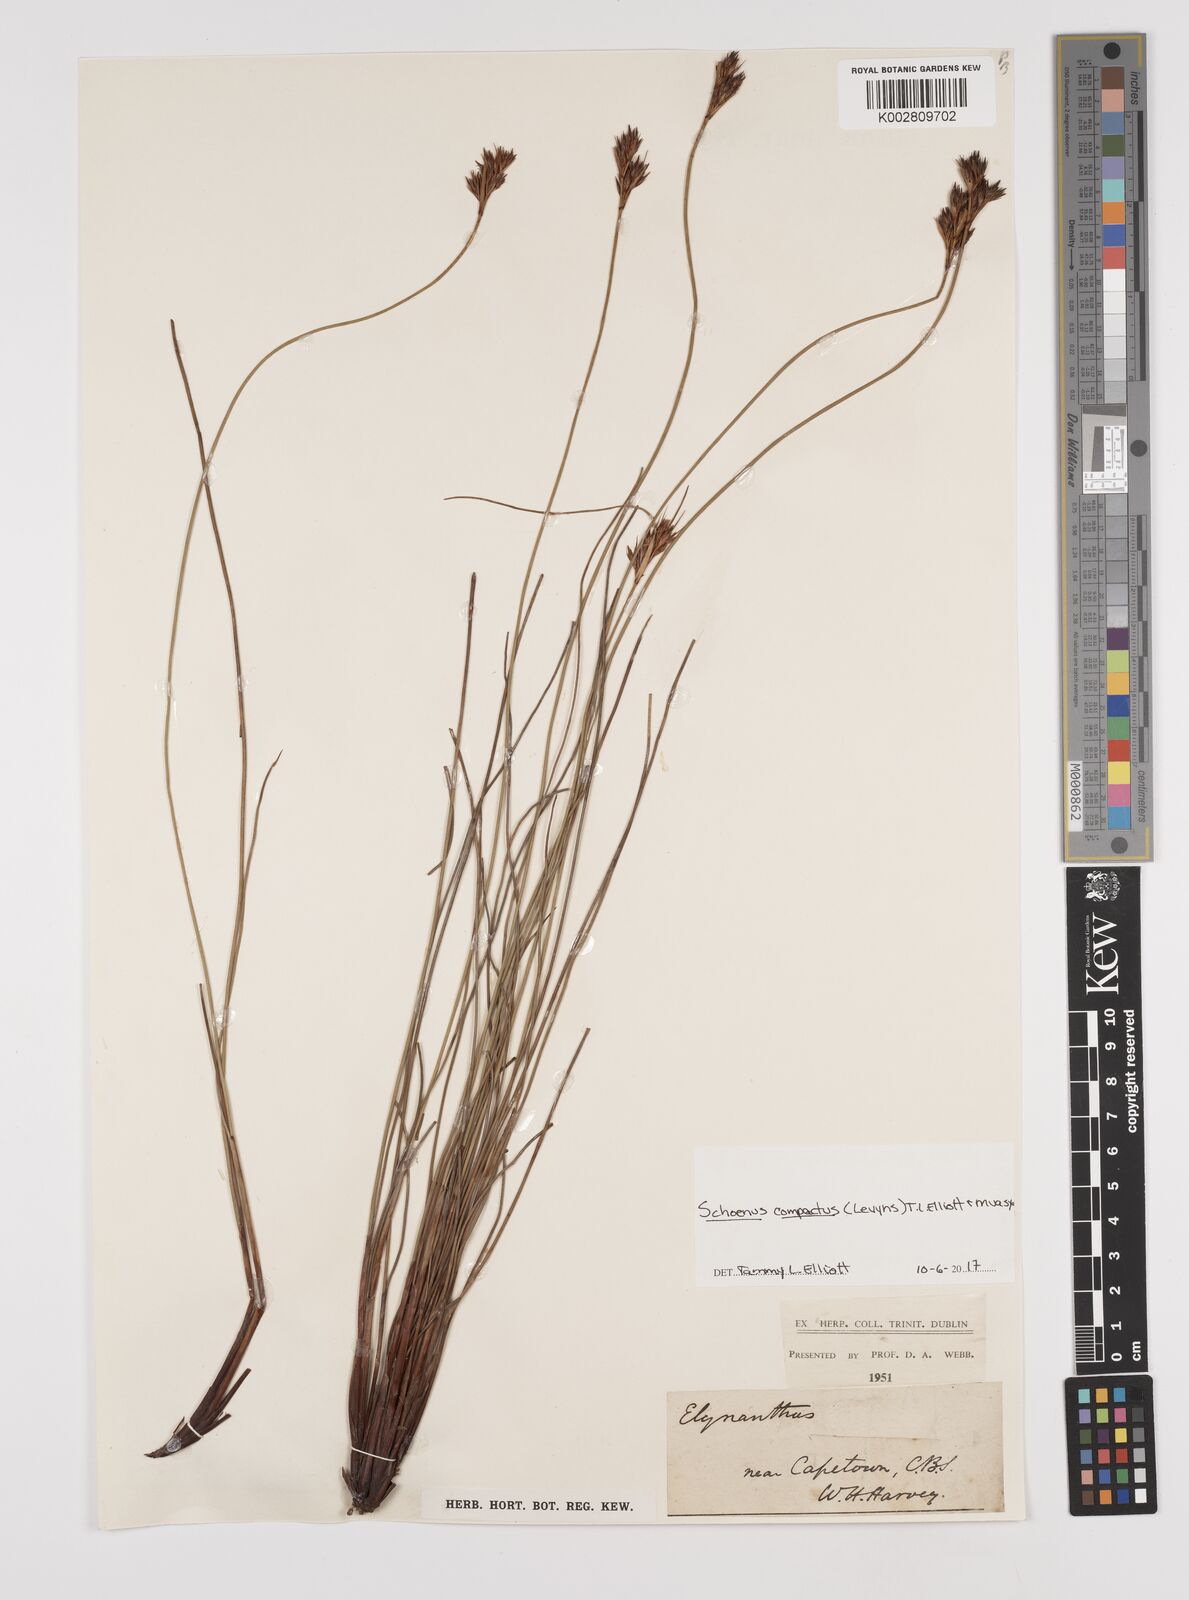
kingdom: Plantae
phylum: Tracheophyta
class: Liliopsida
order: Poales
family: Cyperaceae
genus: Schoenus
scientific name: Schoenus compactus
